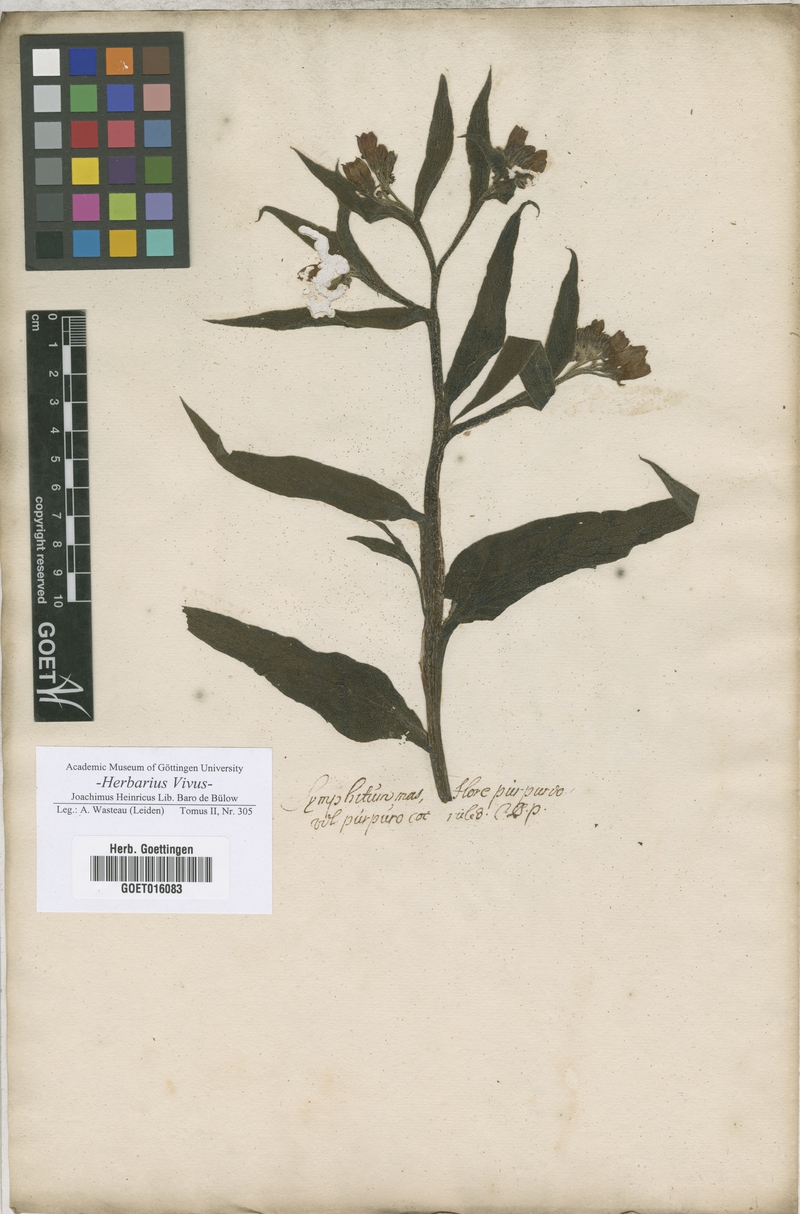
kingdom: Plantae
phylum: Tracheophyta
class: Magnoliopsida
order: Boraginales
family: Boraginaceae
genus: Symphytum
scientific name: Symphytum officinale
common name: Common comfrey
